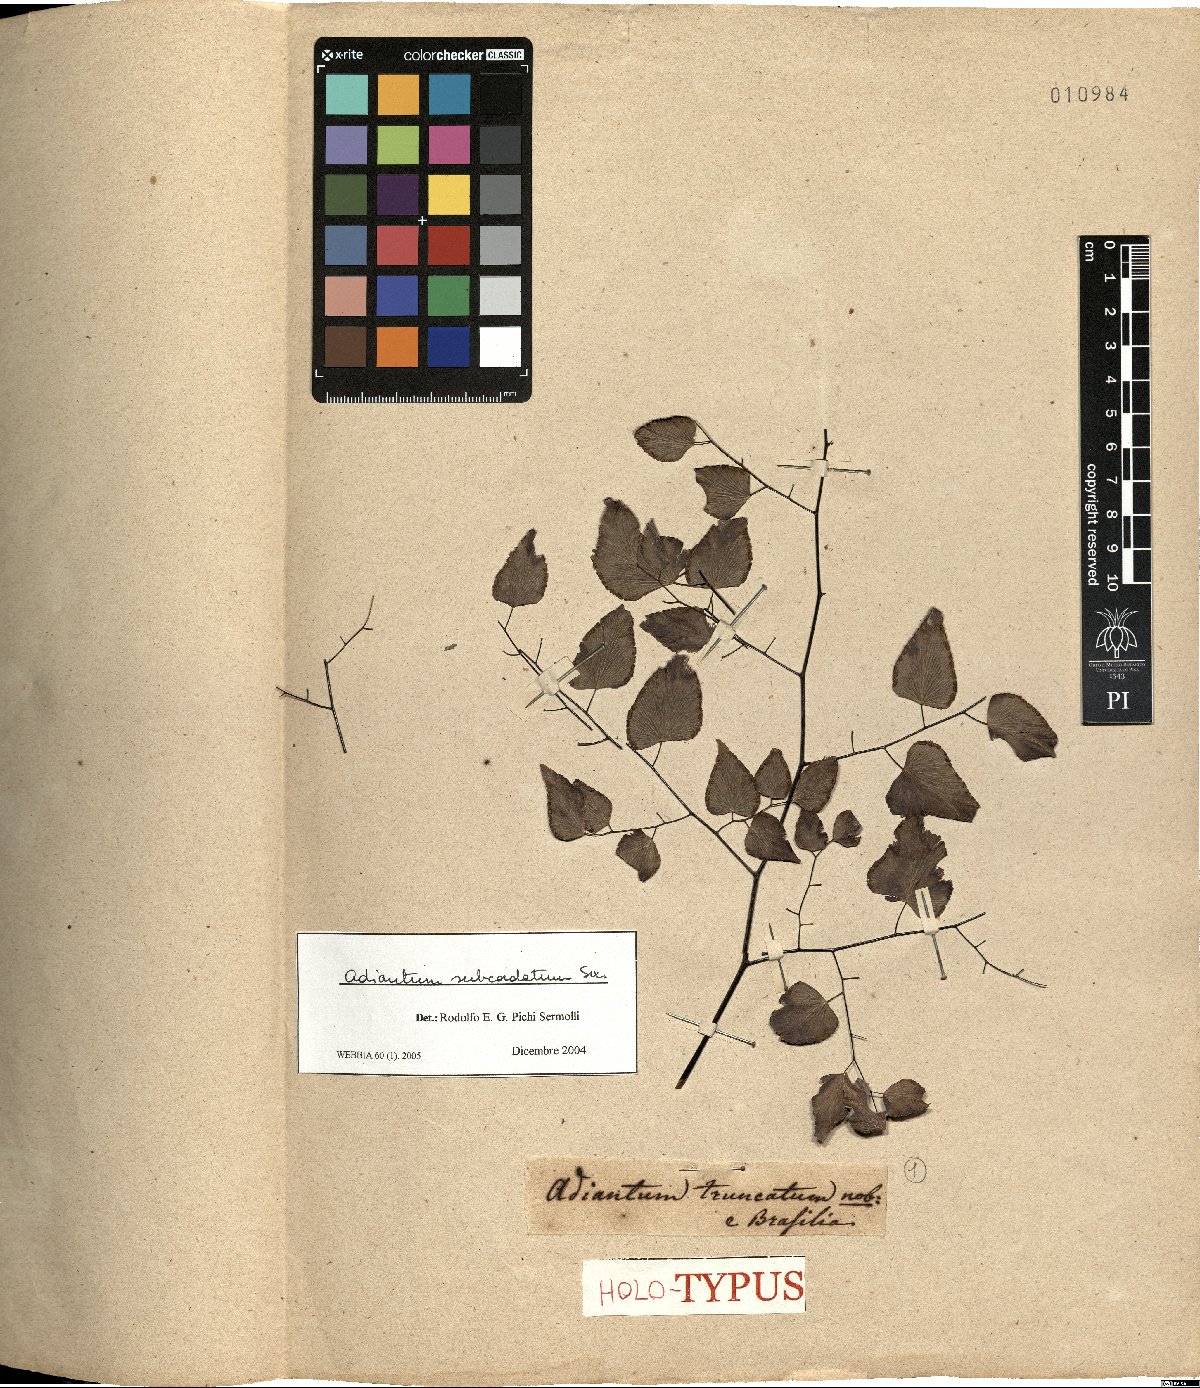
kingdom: Plantae
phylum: Tracheophyta
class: Polypodiopsida
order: Polypodiales
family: Pteridaceae
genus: Adiantum
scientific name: Adiantum subcordatum
